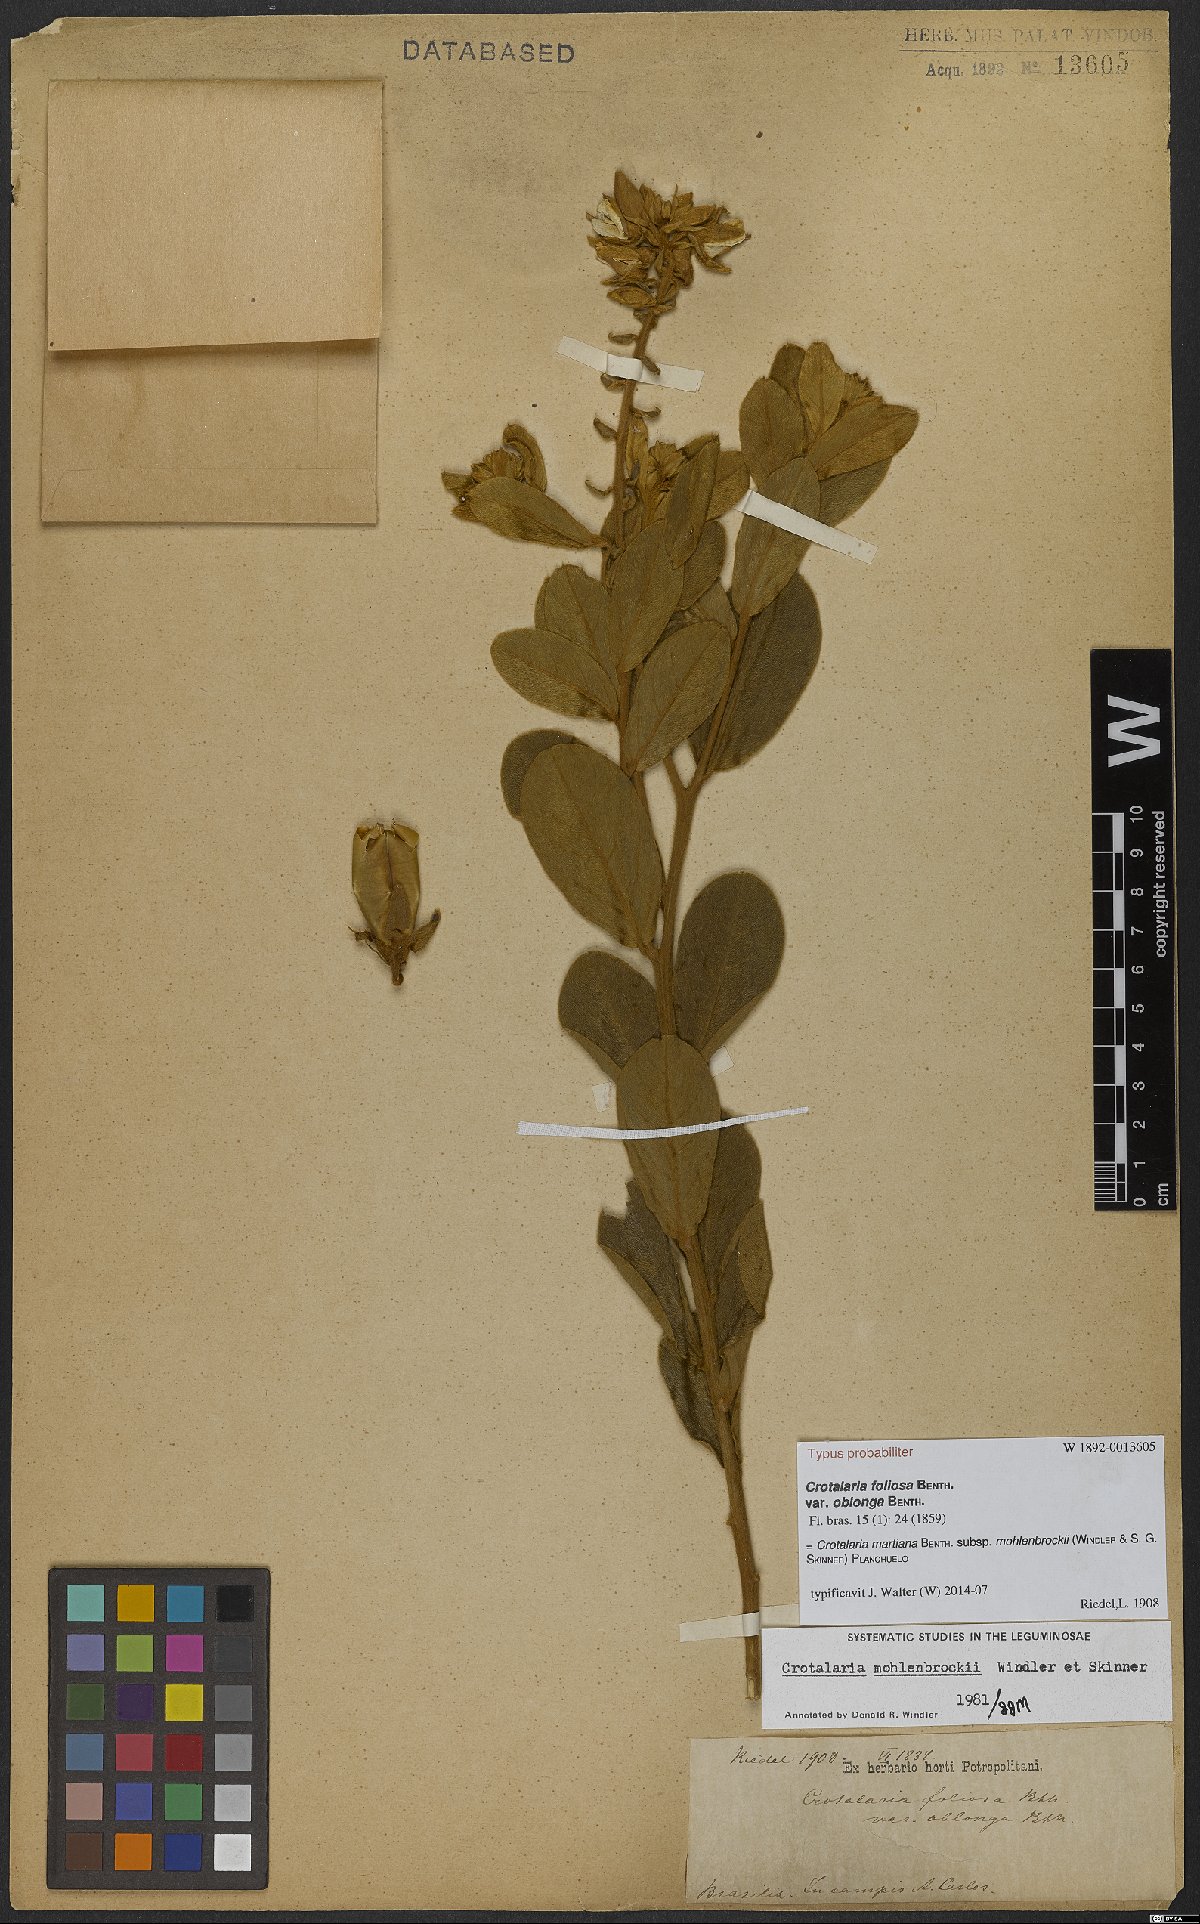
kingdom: Plantae
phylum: Tracheophyta
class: Magnoliopsida
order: Fabales
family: Fabaceae
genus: Crotalaria
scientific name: Crotalaria martiana
